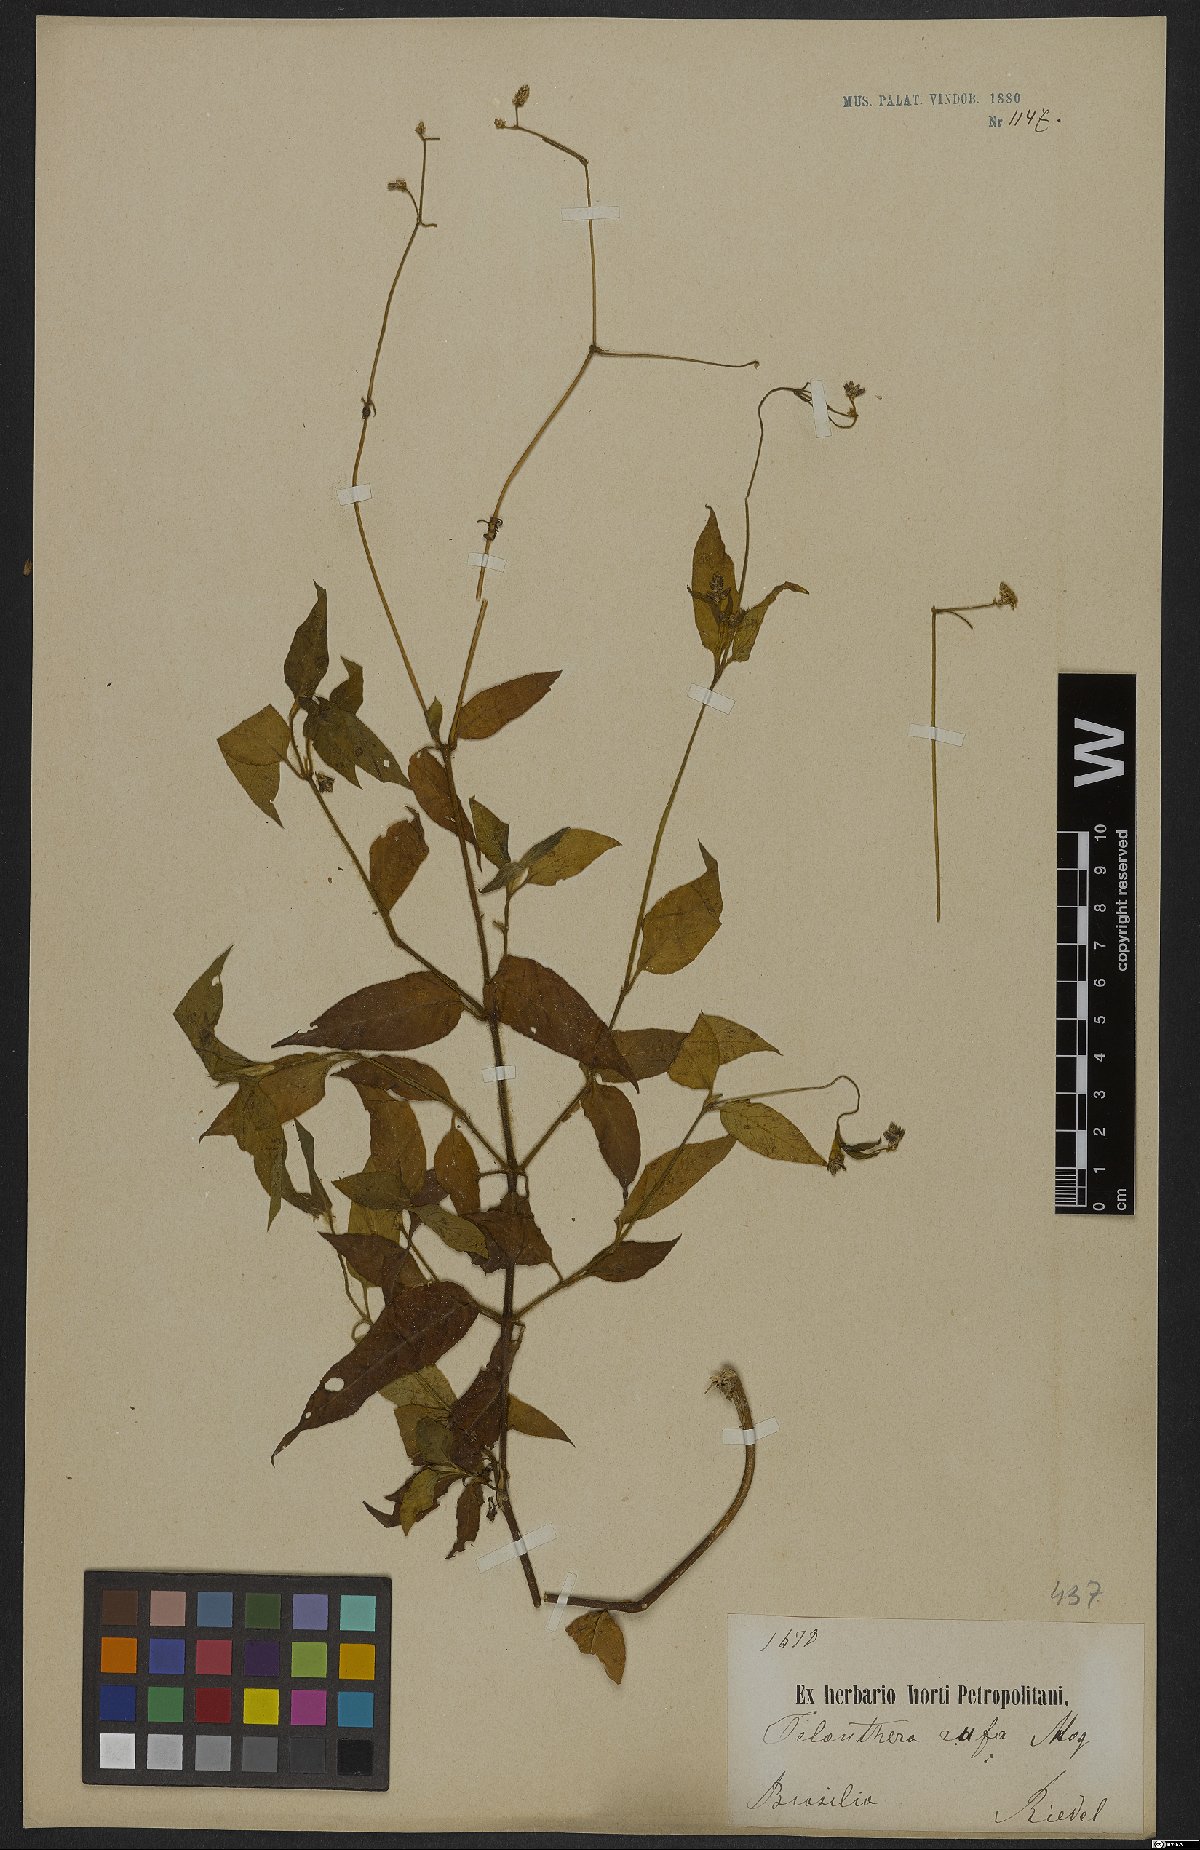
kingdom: Plantae
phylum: Tracheophyta
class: Magnoliopsida
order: Caryophyllales
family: Amaranthaceae
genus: Alternanthera
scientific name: Alternanthera rufa
